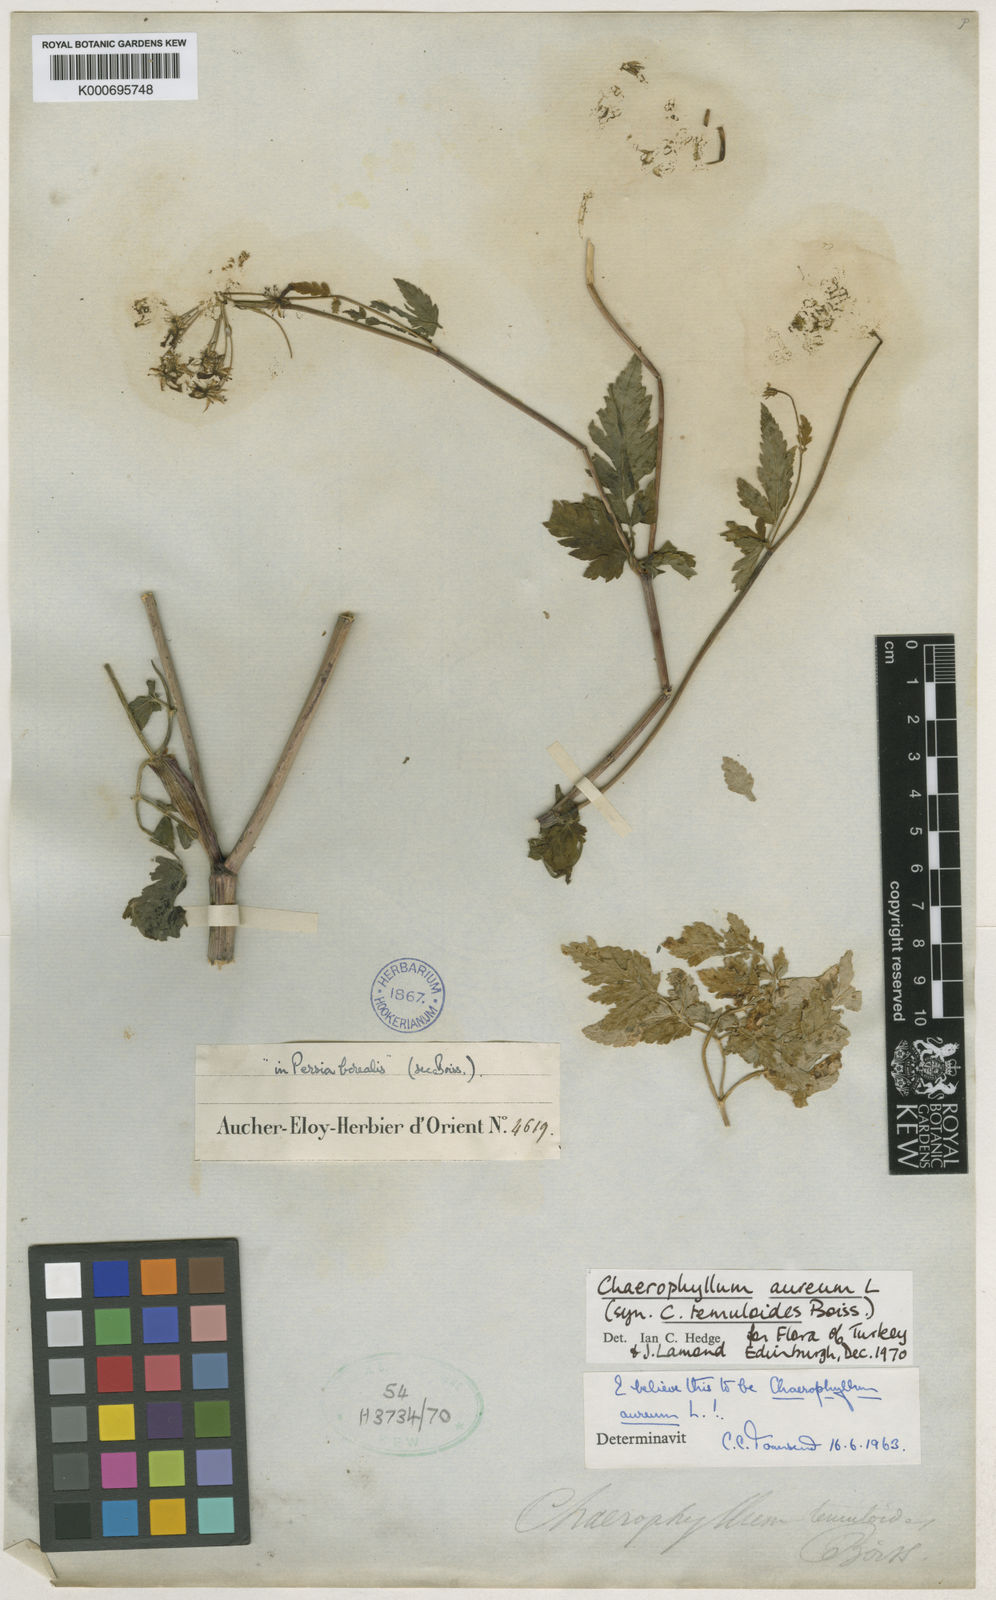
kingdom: Plantae
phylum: Tracheophyta
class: Magnoliopsida
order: Apiales
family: Apiaceae
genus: Chaerophyllum
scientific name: Chaerophyllum aureum
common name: Golden chervil
